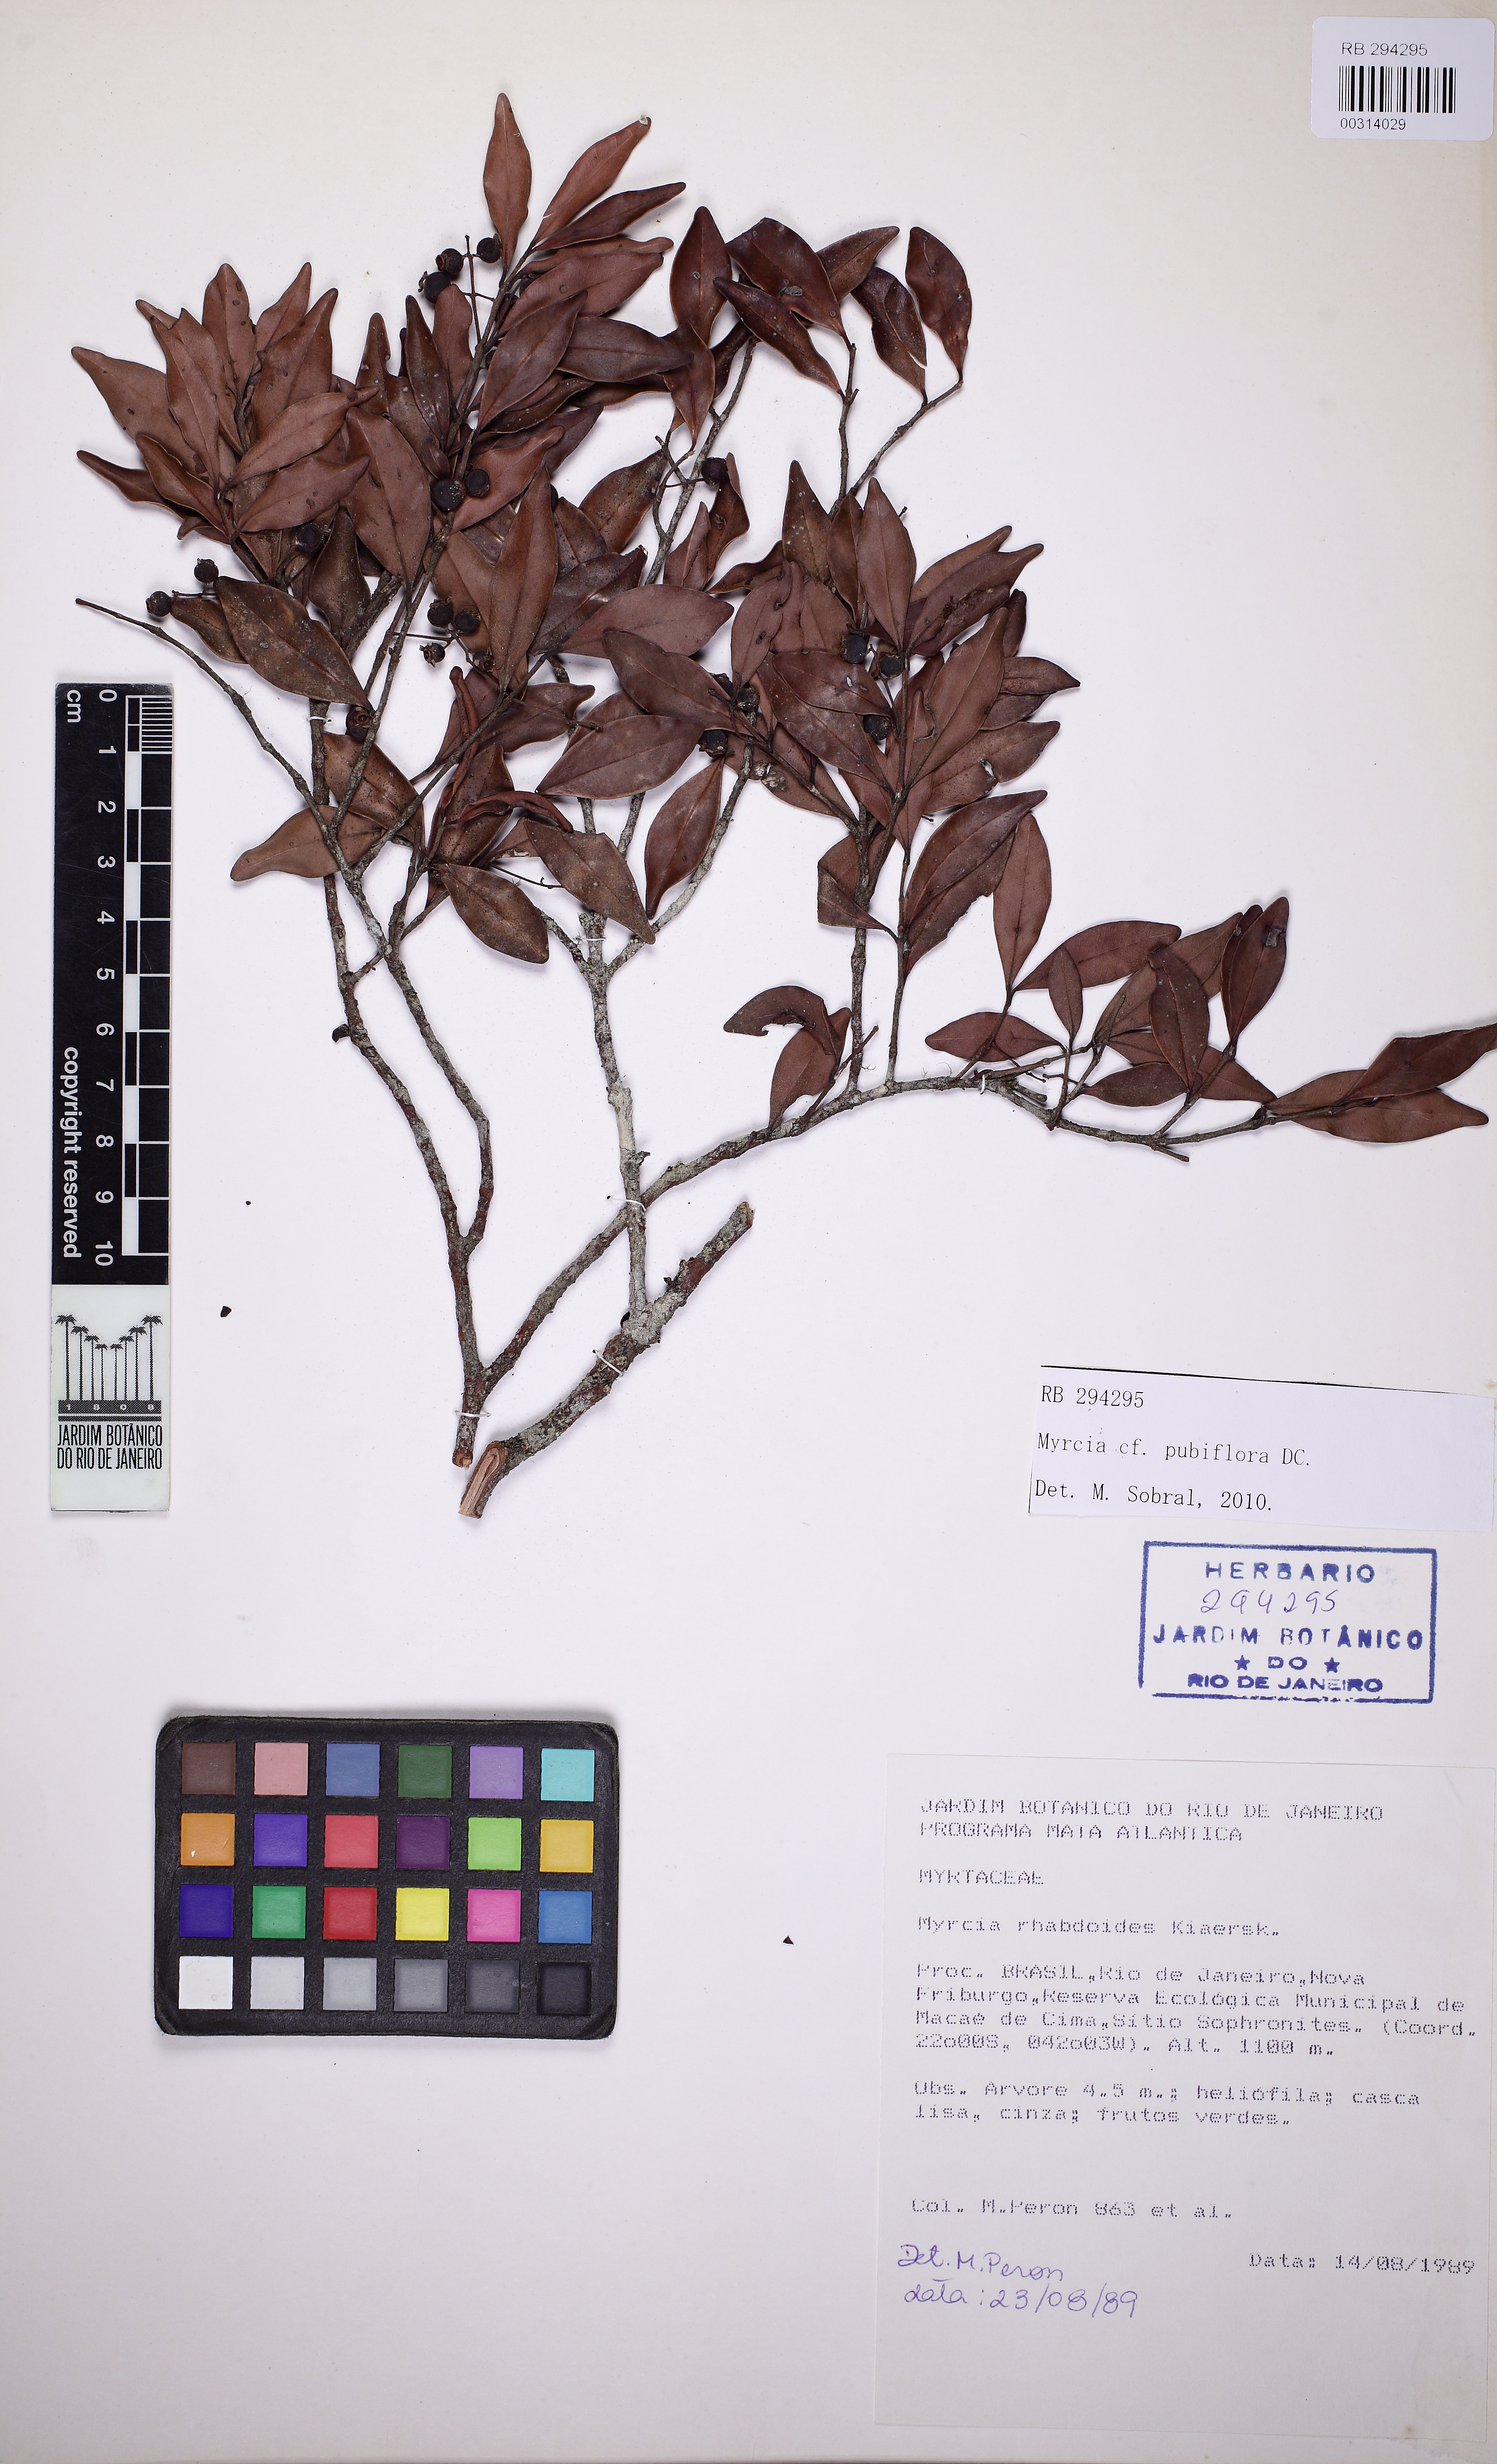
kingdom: Plantae
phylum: Tracheophyta
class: Magnoliopsida
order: Myrtales
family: Myrtaceae
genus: Myrcia
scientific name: Myrcia pubiflora
